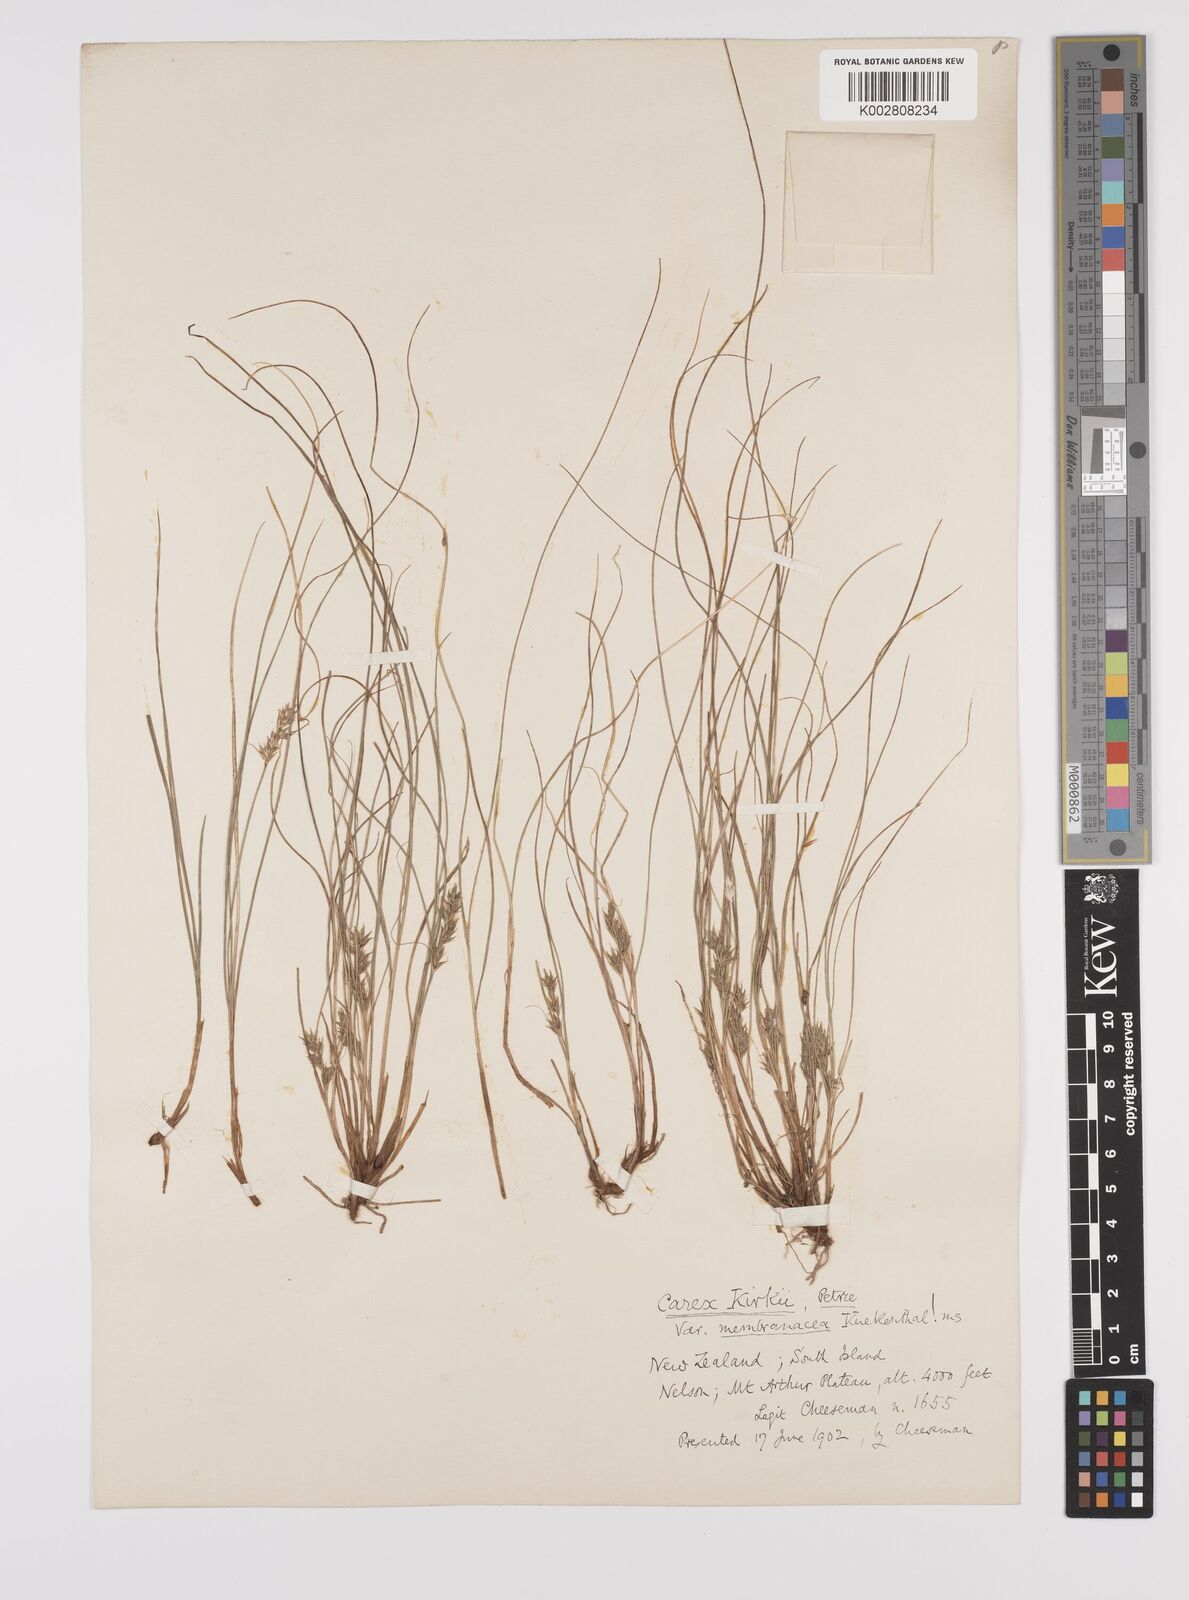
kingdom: Plantae
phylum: Tracheophyta
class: Liliopsida
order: Poales
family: Cyperaceae
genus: Carex
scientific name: Carex kirkii
